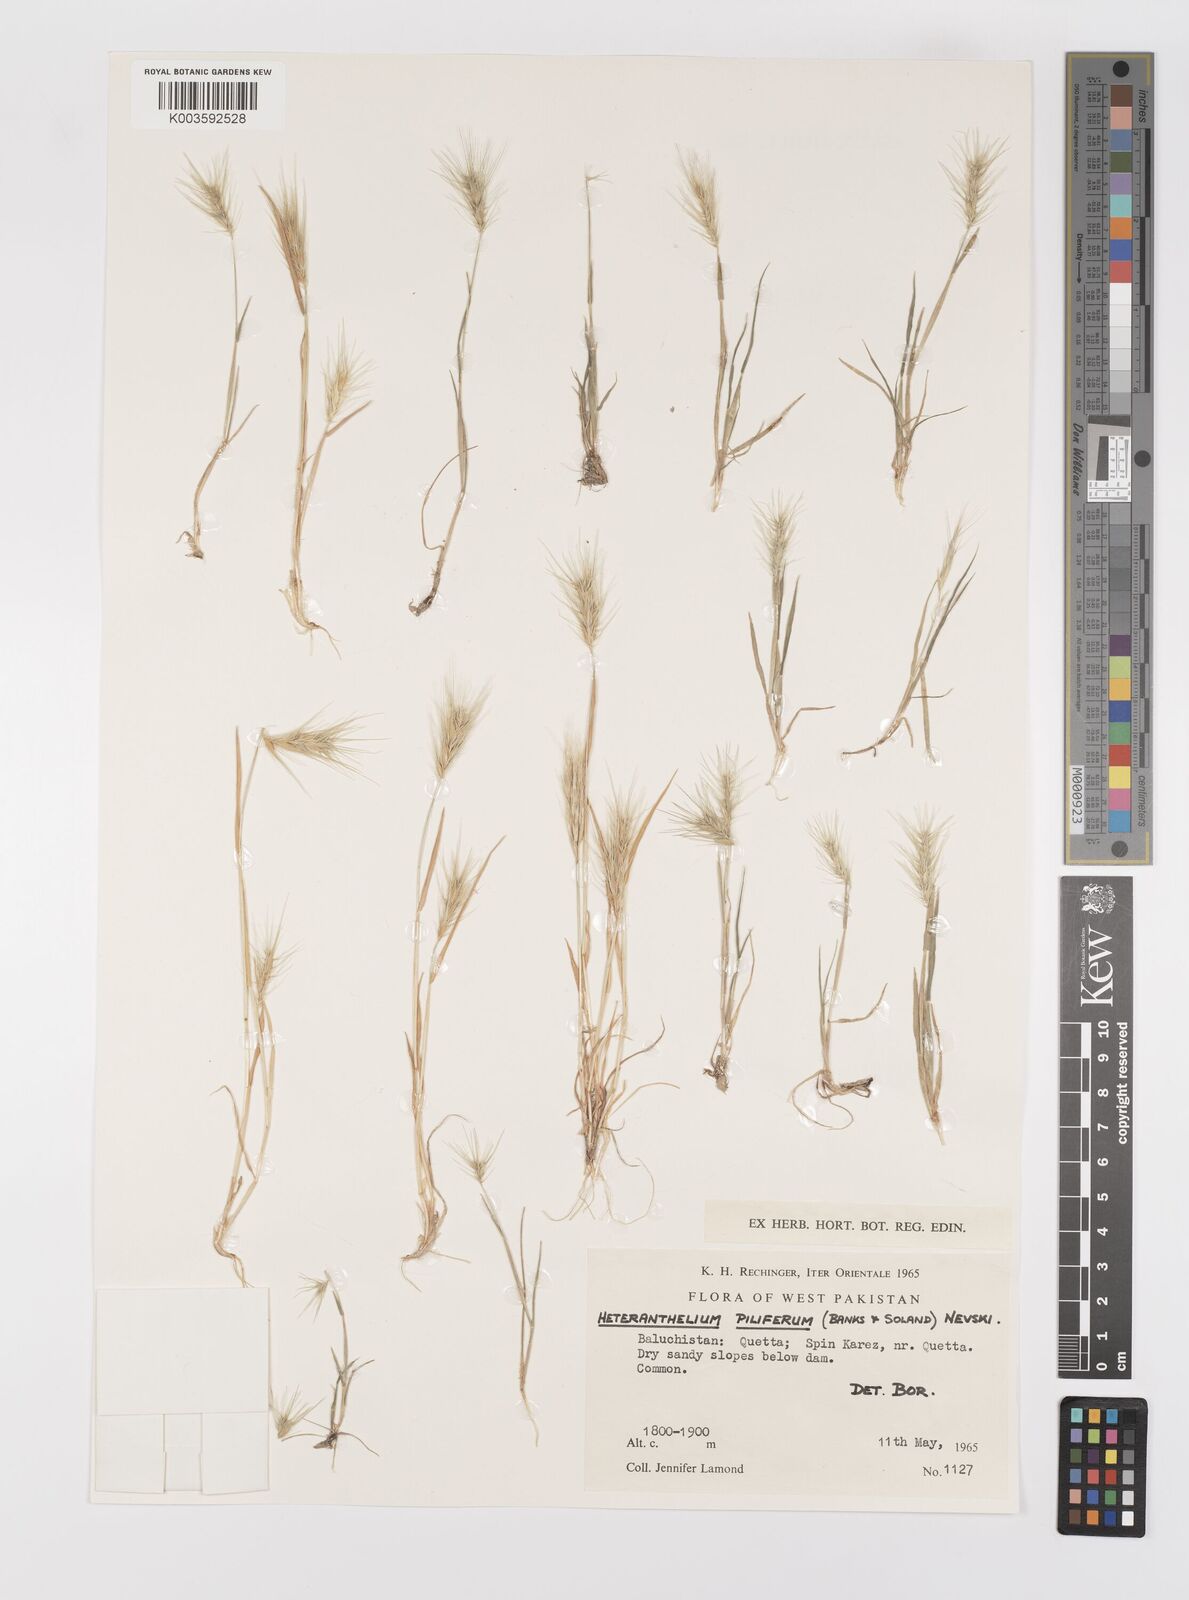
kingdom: Plantae
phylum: Tracheophyta
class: Liliopsida
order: Poales
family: Poaceae
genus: Heteranthelium
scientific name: Heteranthelium piliferum
